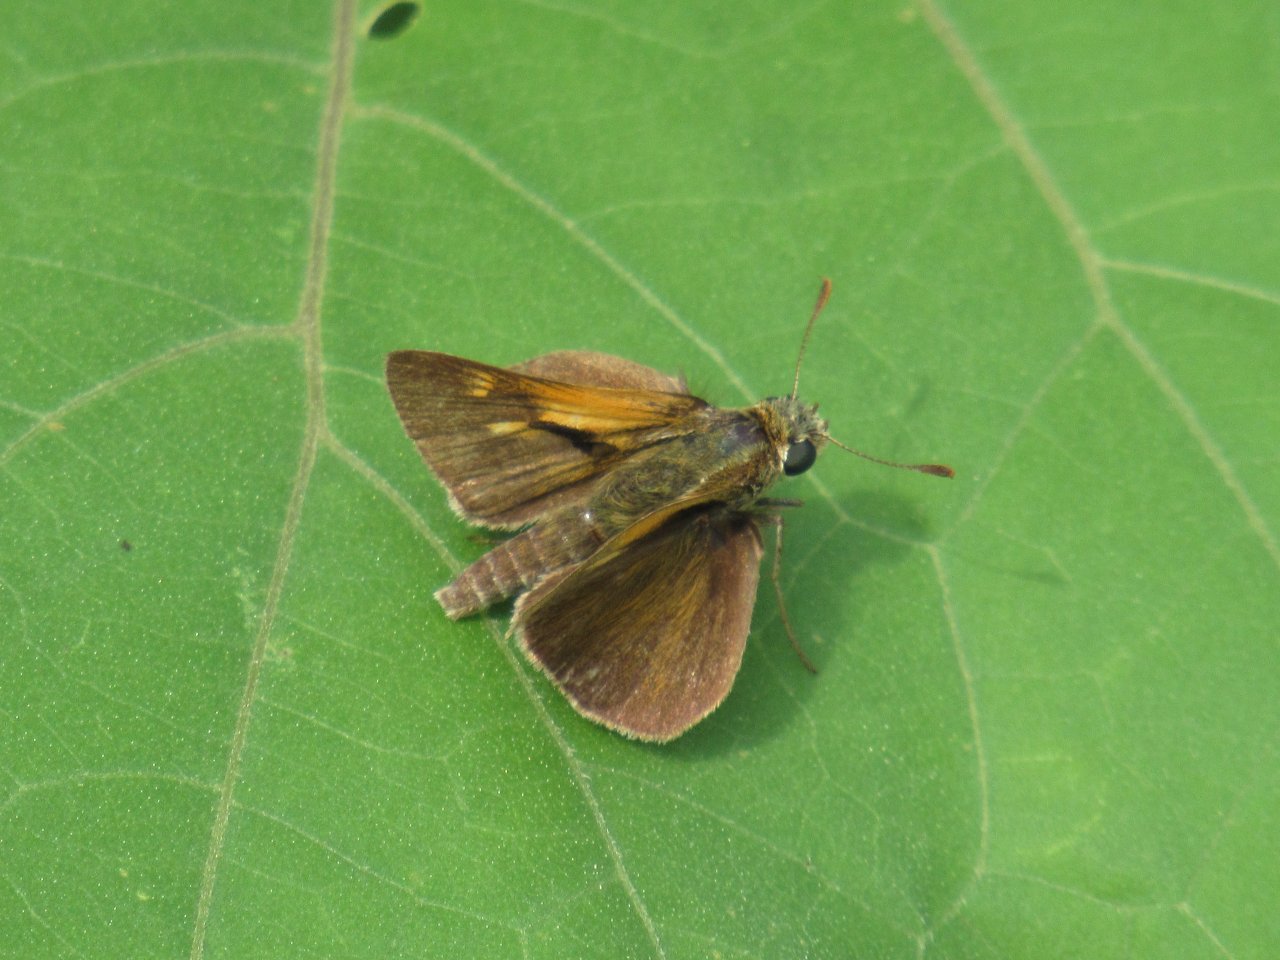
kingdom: Animalia
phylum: Arthropoda
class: Insecta
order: Lepidoptera
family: Hesperiidae
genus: Polites
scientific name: Polites themistocles
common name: Tawny-edged Skipper
